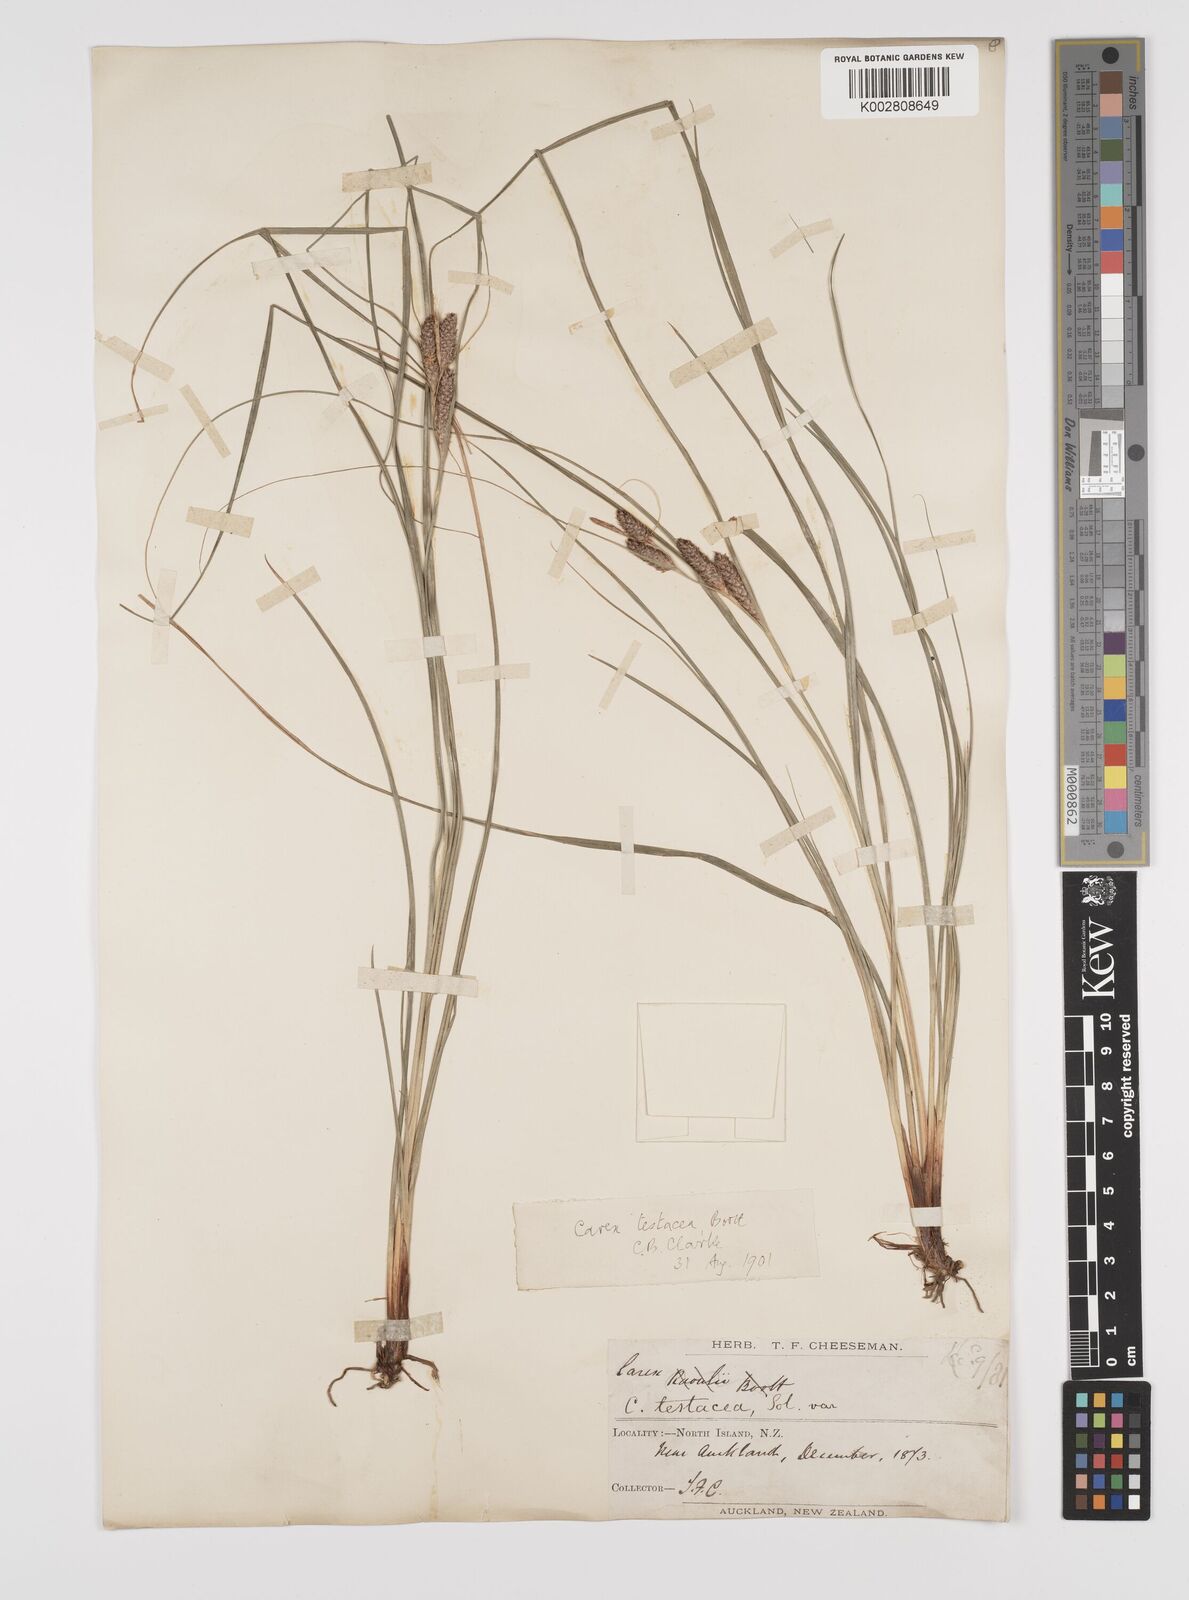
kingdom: Plantae
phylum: Tracheophyta
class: Liliopsida
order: Poales
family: Cyperaceae
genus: Carex
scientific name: Carex testacea
